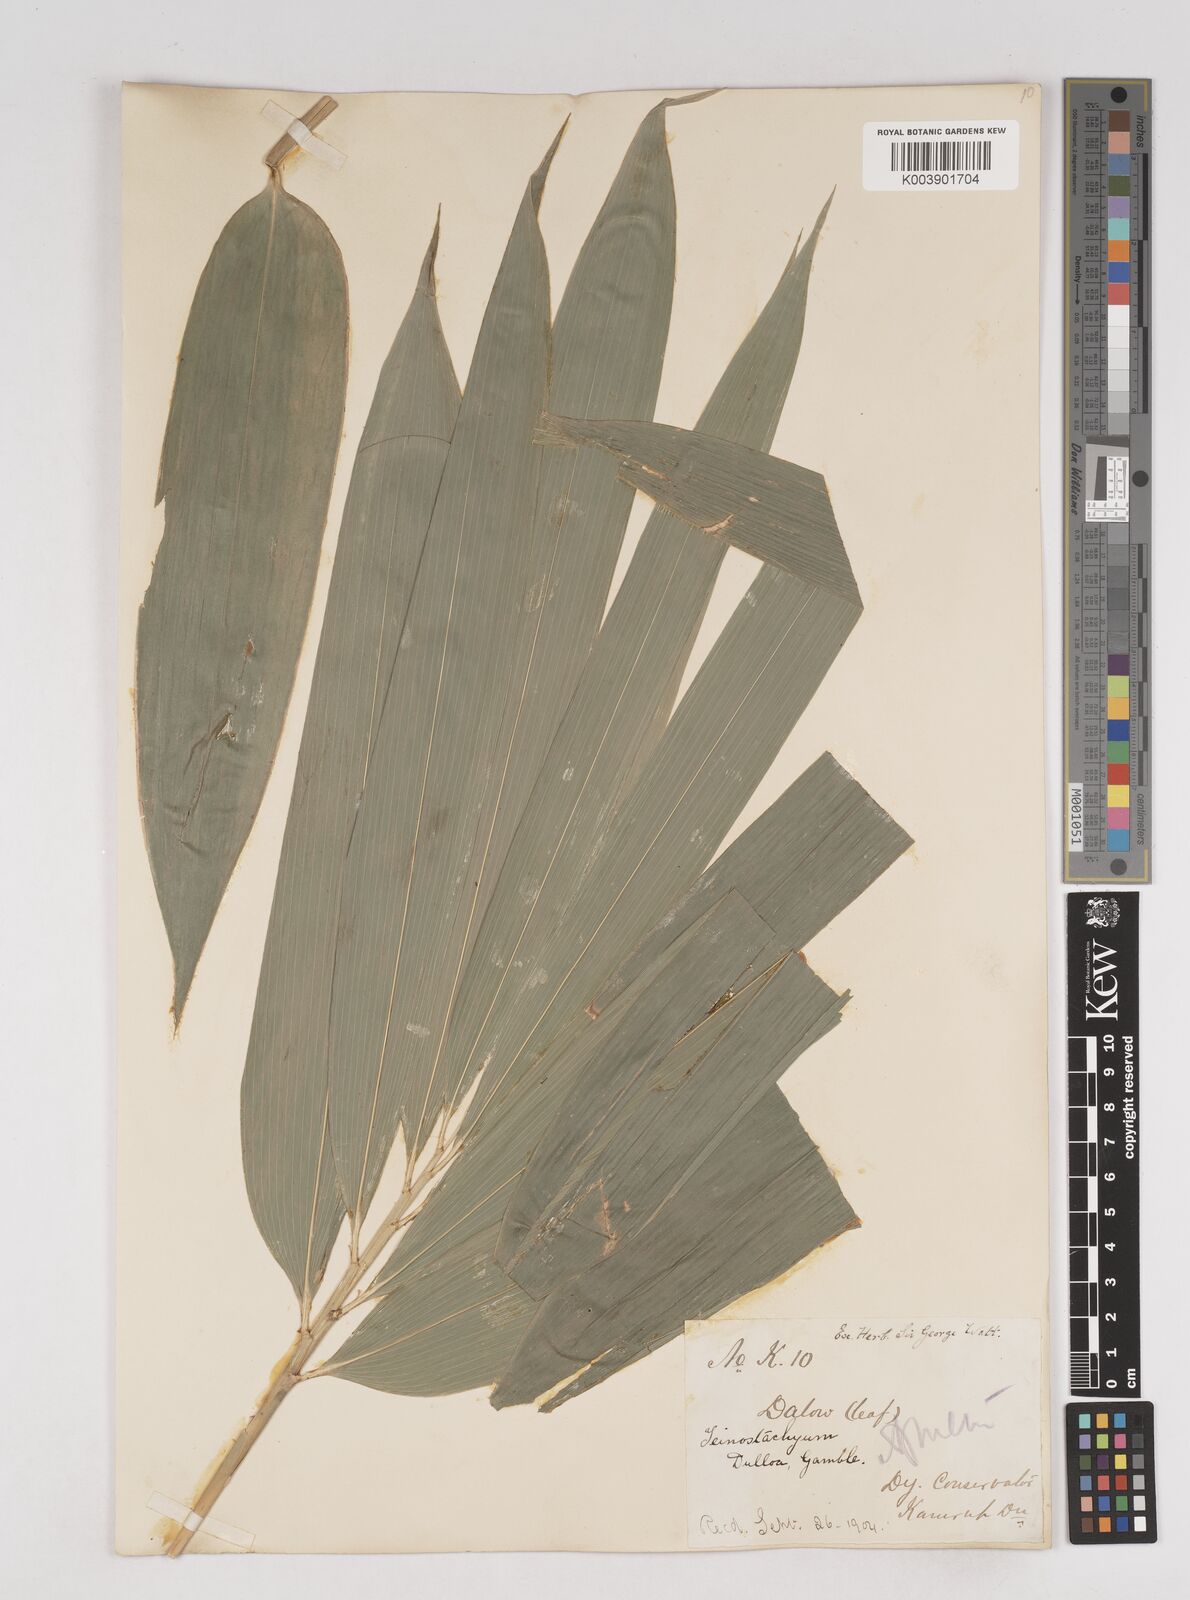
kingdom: Plantae
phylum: Tracheophyta
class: Liliopsida
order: Poales
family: Poaceae
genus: Schizostachyum
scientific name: Schizostachyum dullooa
